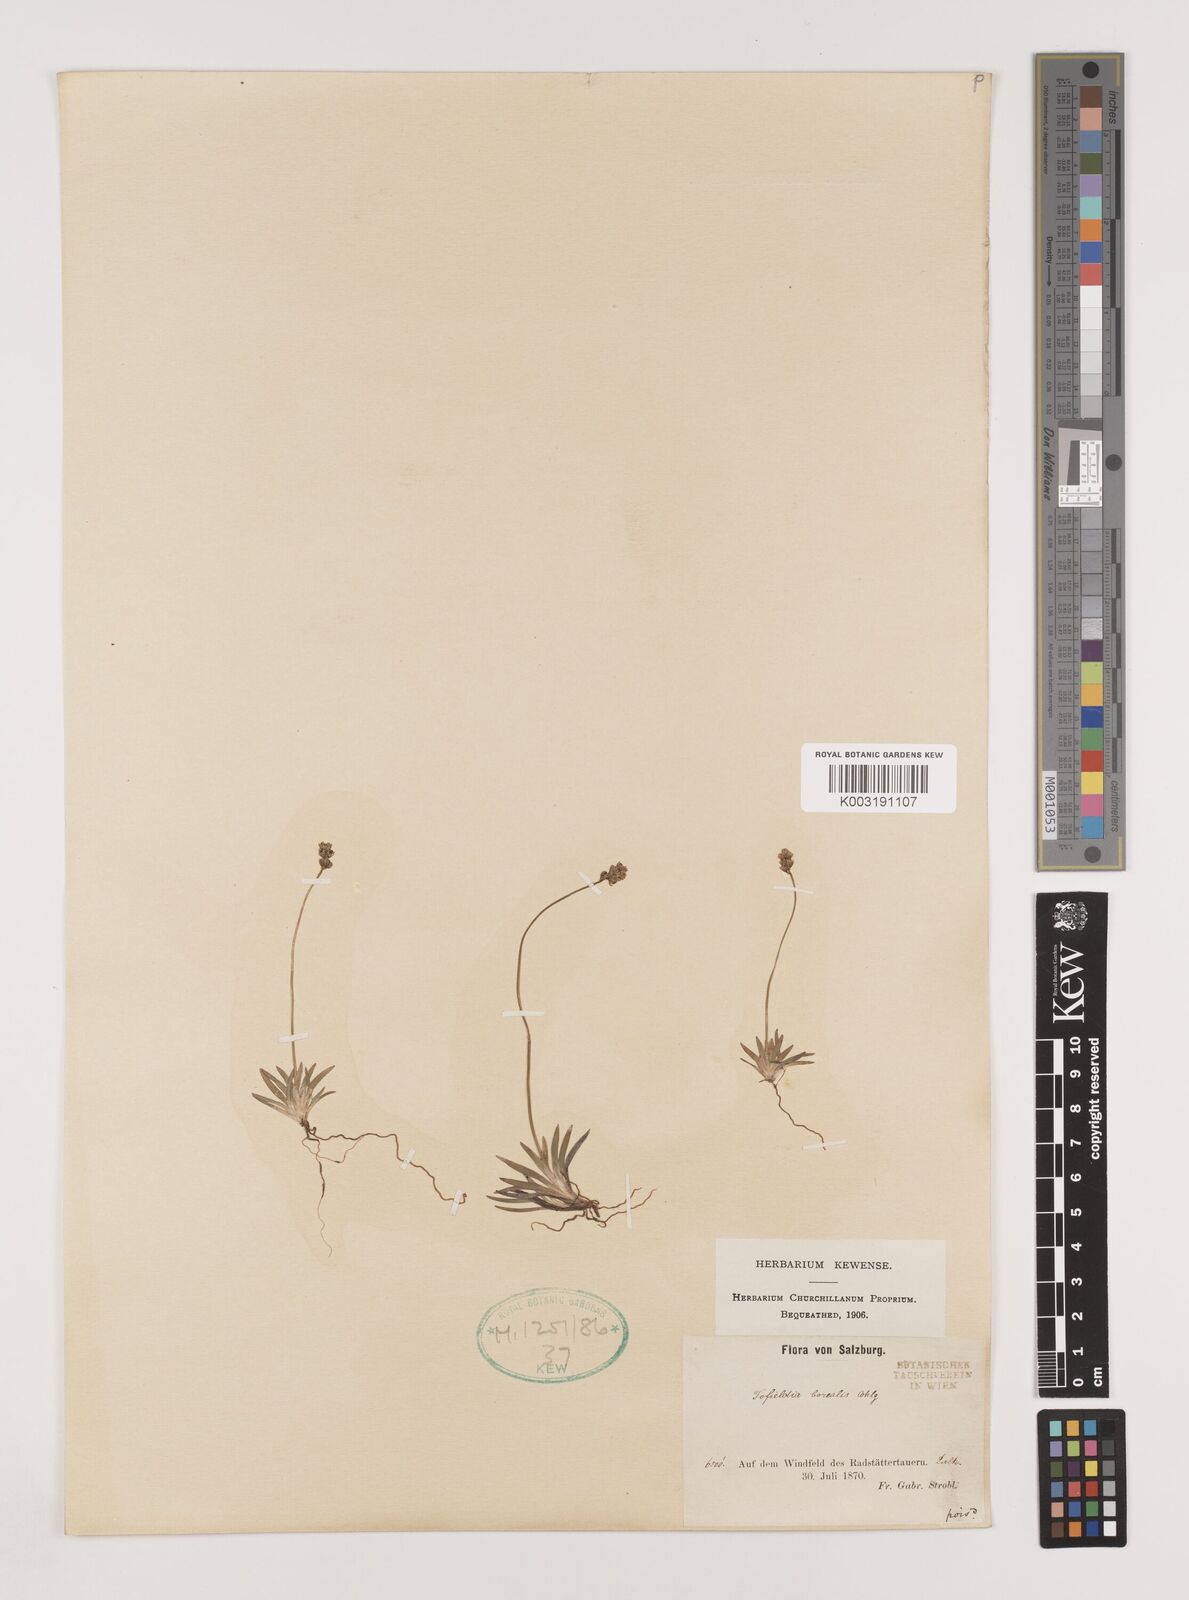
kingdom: Plantae
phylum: Tracheophyta
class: Liliopsida
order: Alismatales
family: Tofieldiaceae
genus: Tofieldia
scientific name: Tofieldia pusilla
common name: Scottish false asphodel
